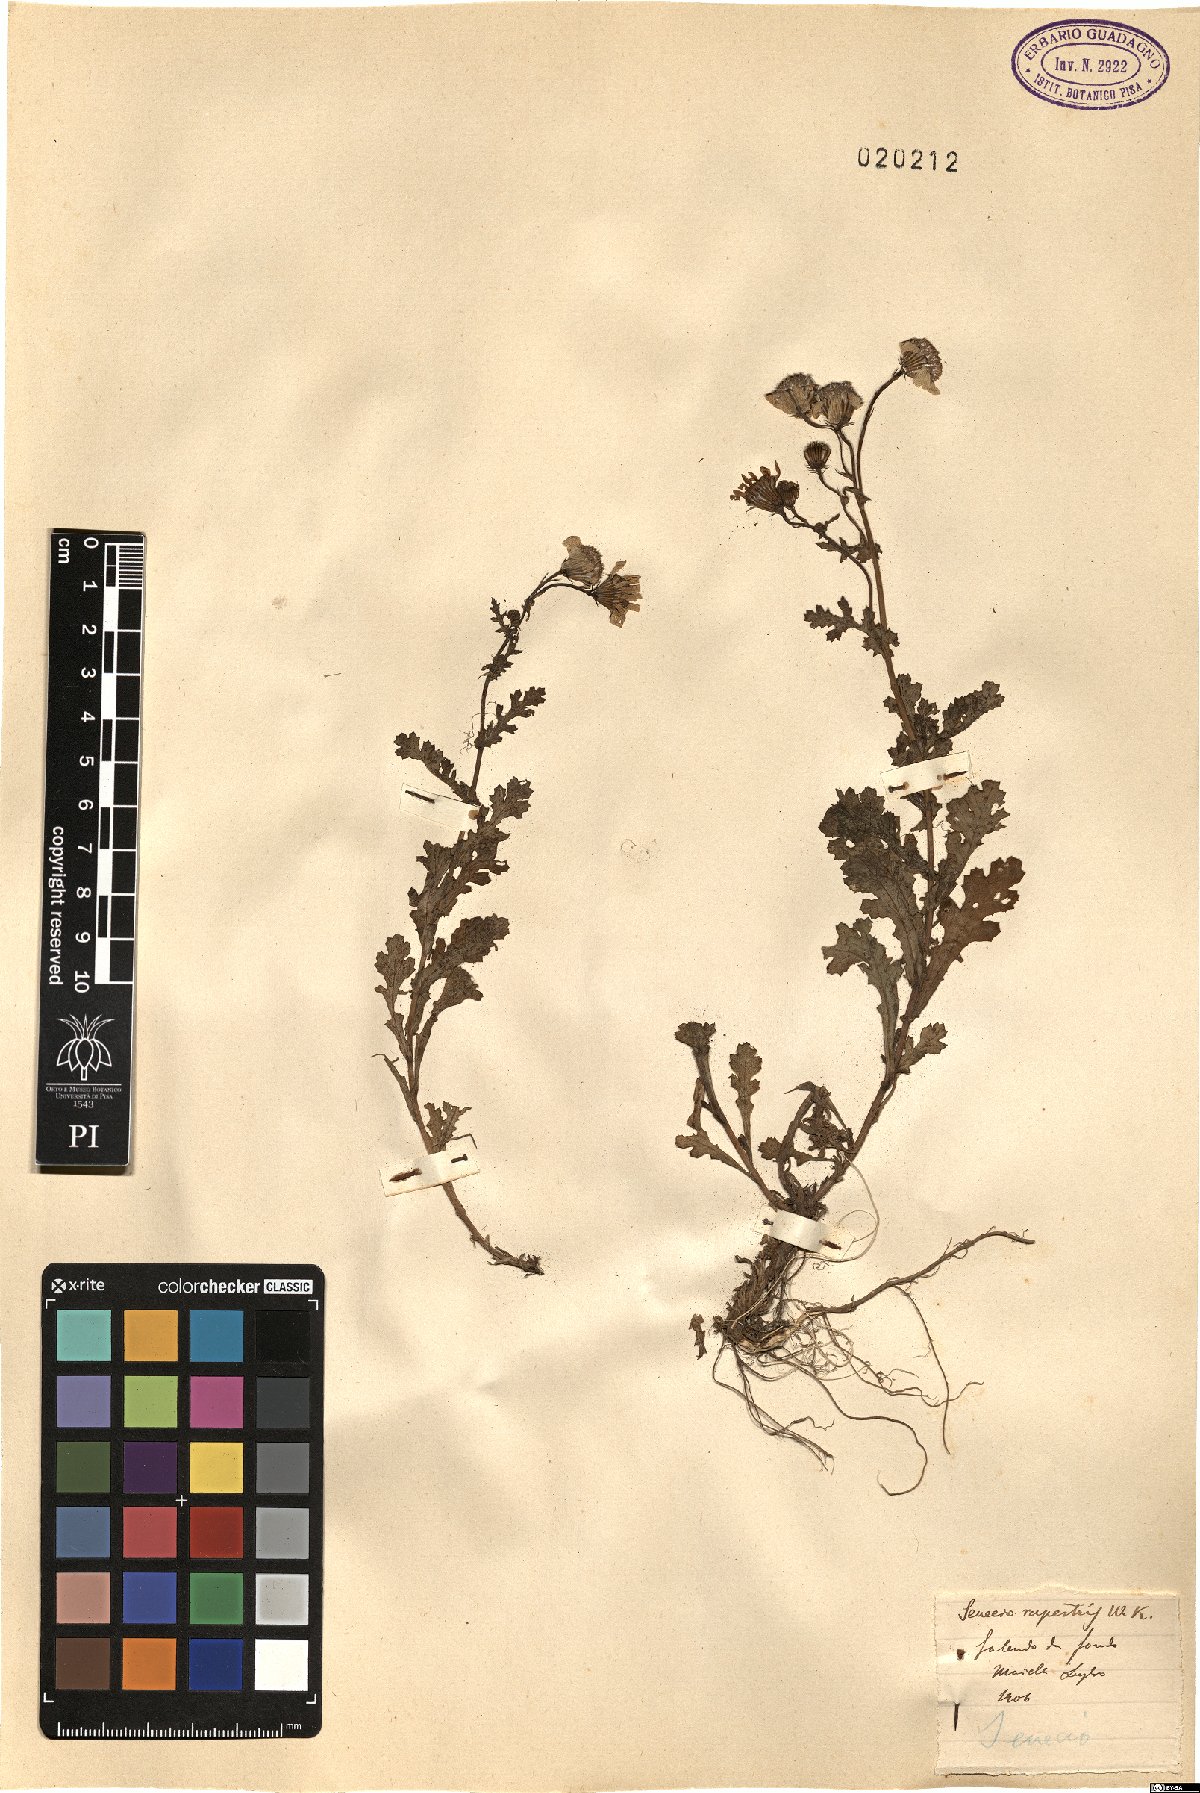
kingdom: Plantae
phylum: Tracheophyta
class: Magnoliopsida
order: Asterales
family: Asteraceae
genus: Senecio
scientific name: Senecio rupestris
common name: Rock ragwort
